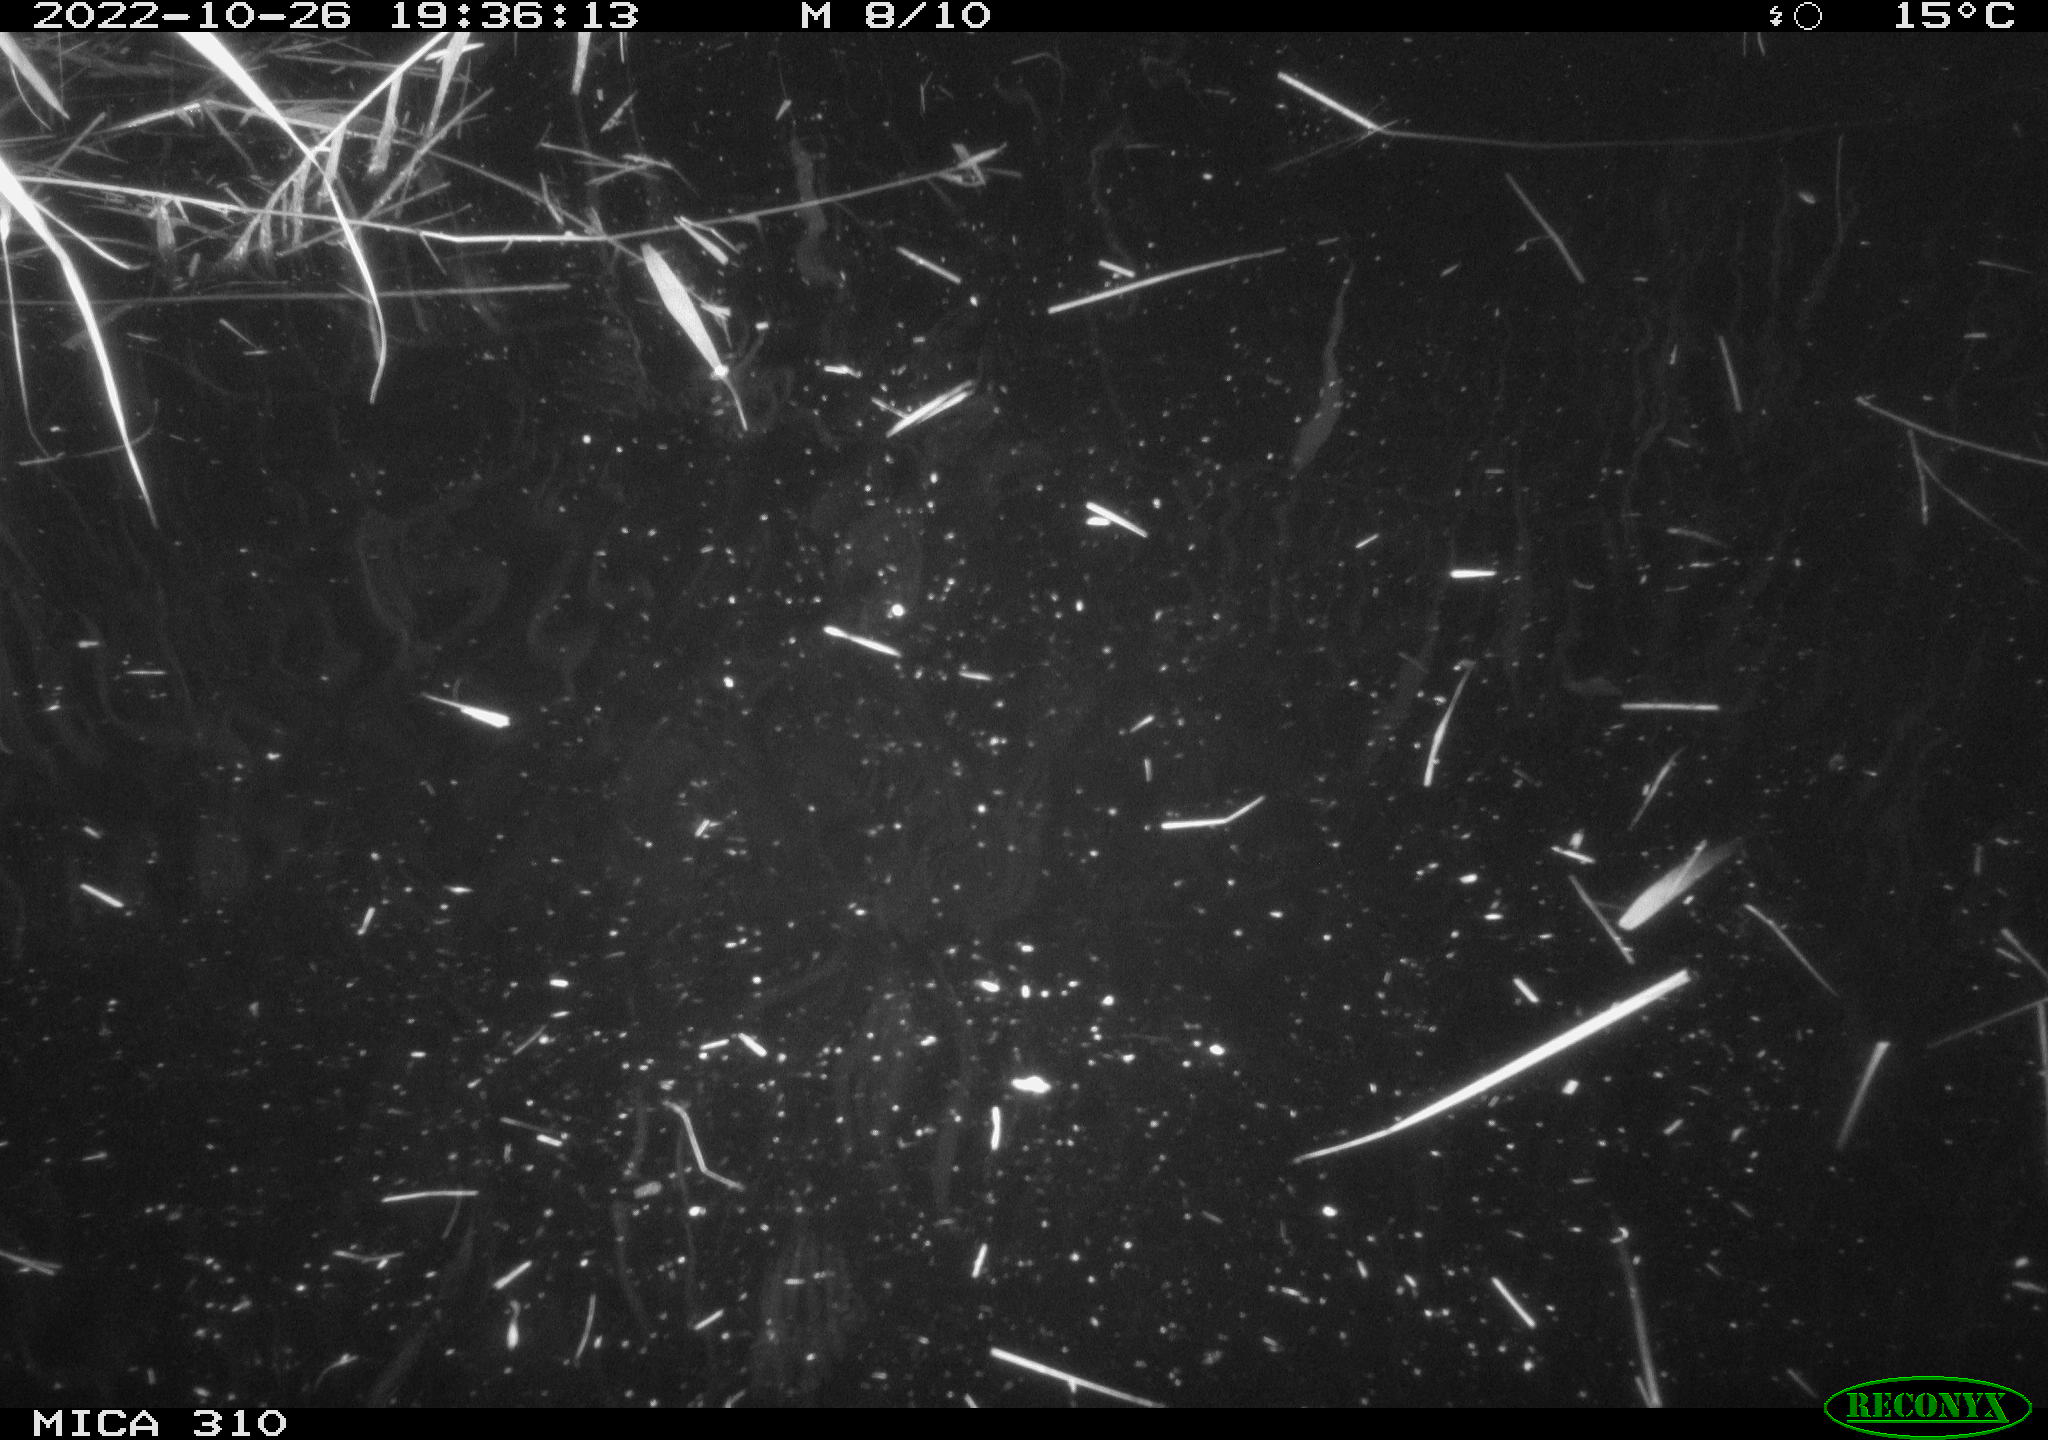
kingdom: Animalia
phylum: Chordata
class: Mammalia
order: Rodentia
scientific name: Rodentia
